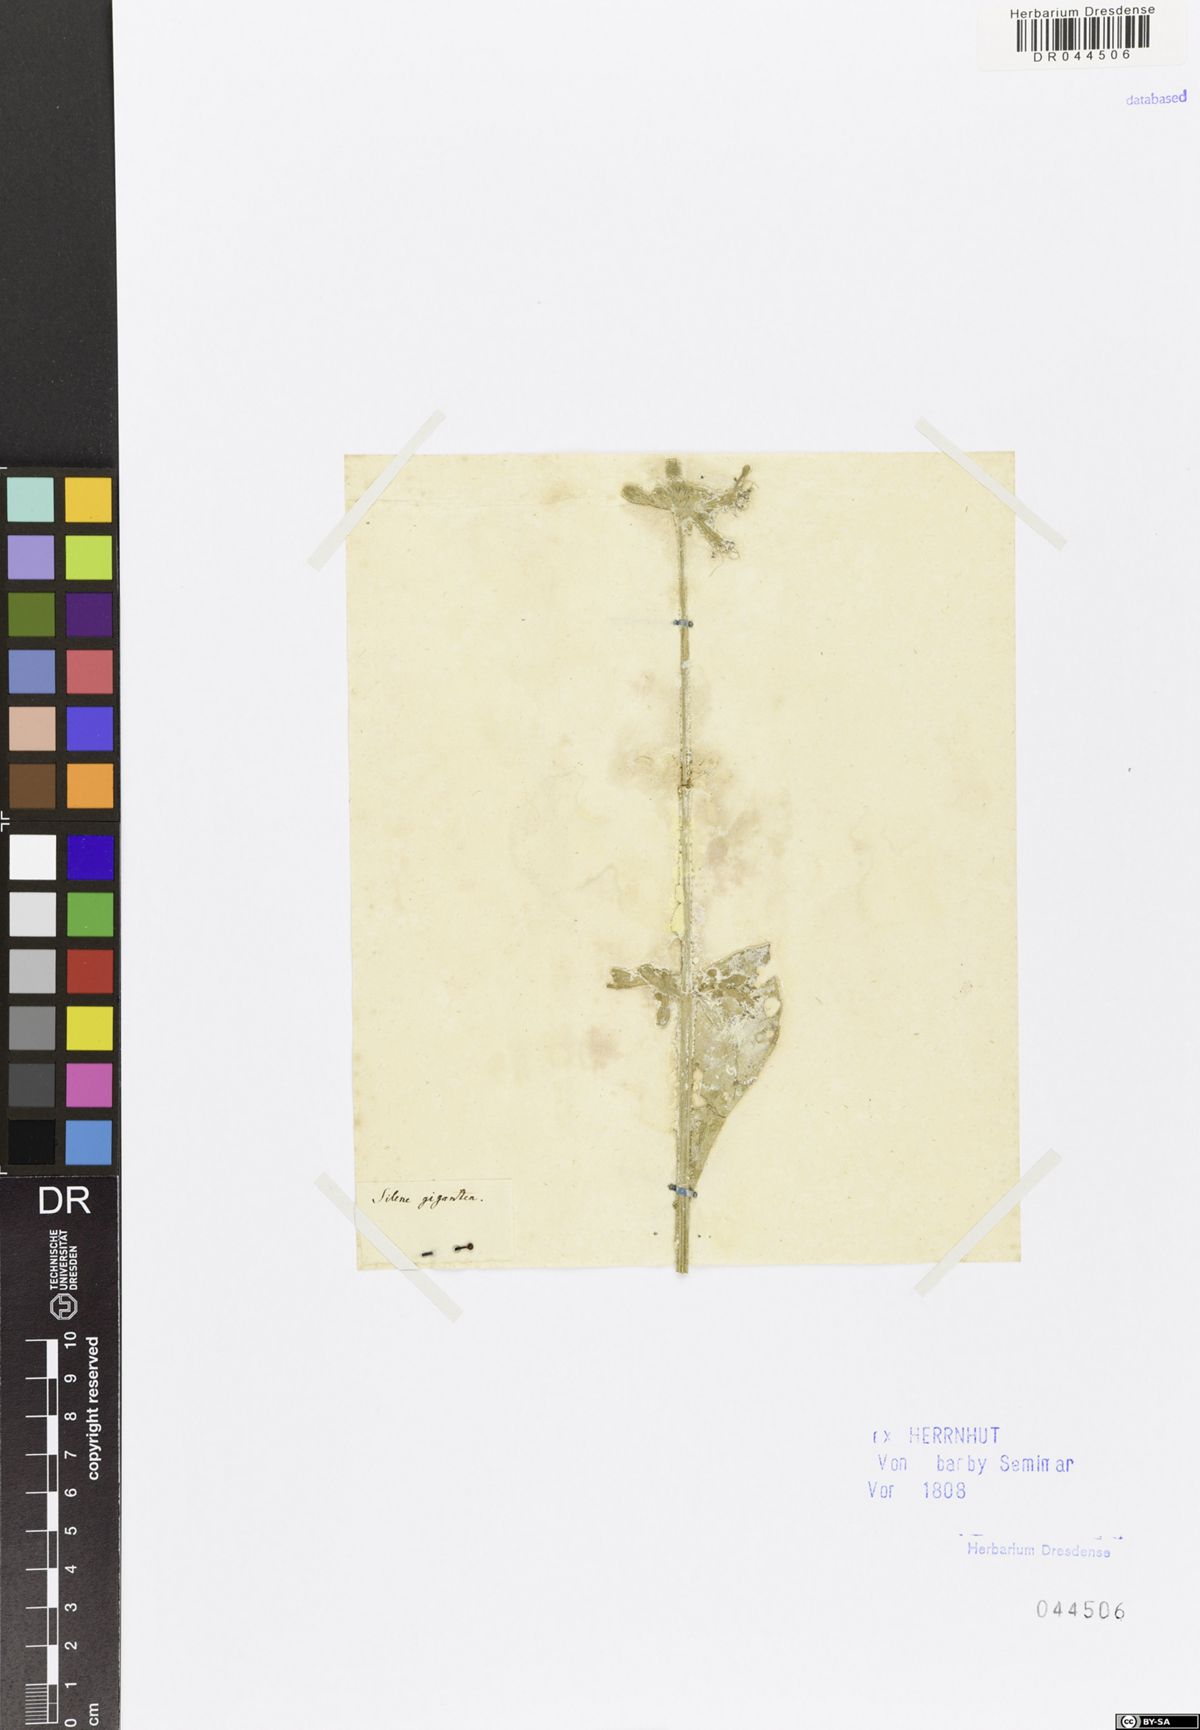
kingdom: Plantae
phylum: Tracheophyta
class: Magnoliopsida
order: Caryophyllales
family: Caryophyllaceae
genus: Silene
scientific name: Silene gigantea
